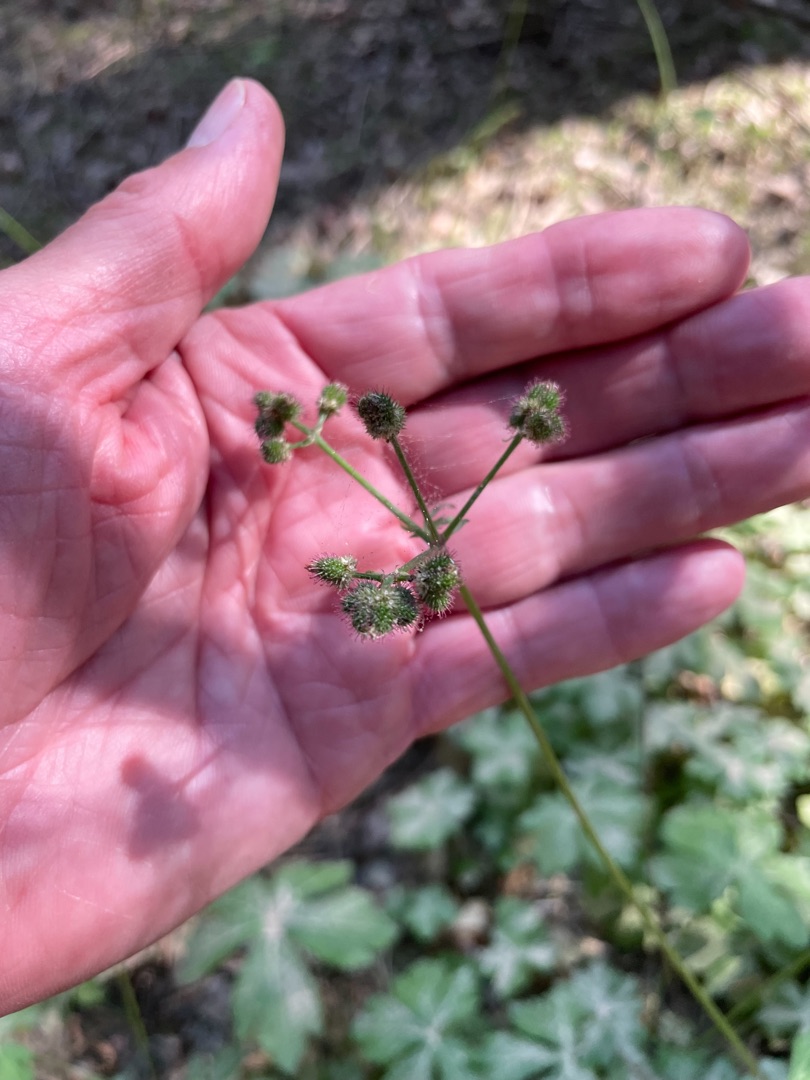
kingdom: Plantae
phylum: Tracheophyta
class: Magnoliopsida
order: Apiales
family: Apiaceae
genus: Sanicula
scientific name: Sanicula europaea
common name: Sanikel
